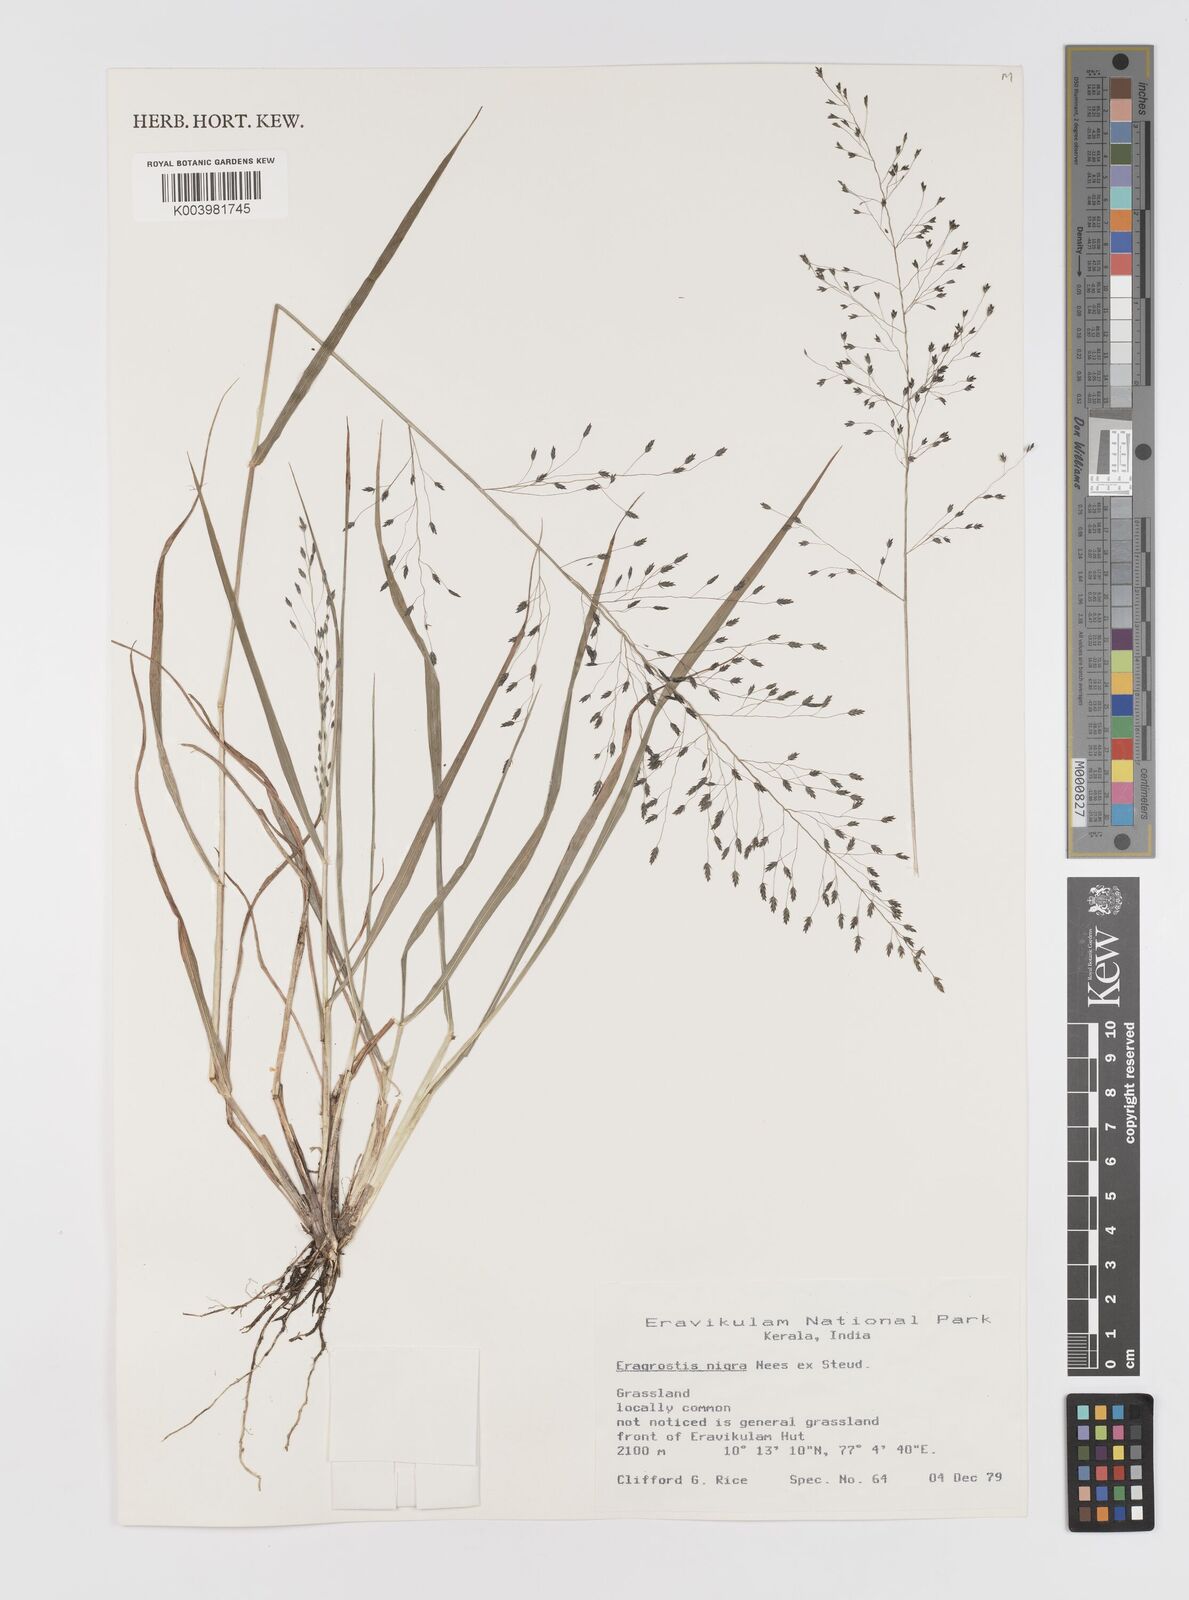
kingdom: Plantae
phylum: Tracheophyta
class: Liliopsida
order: Poales
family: Poaceae
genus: Eragrostis
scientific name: Eragrostis nigra
